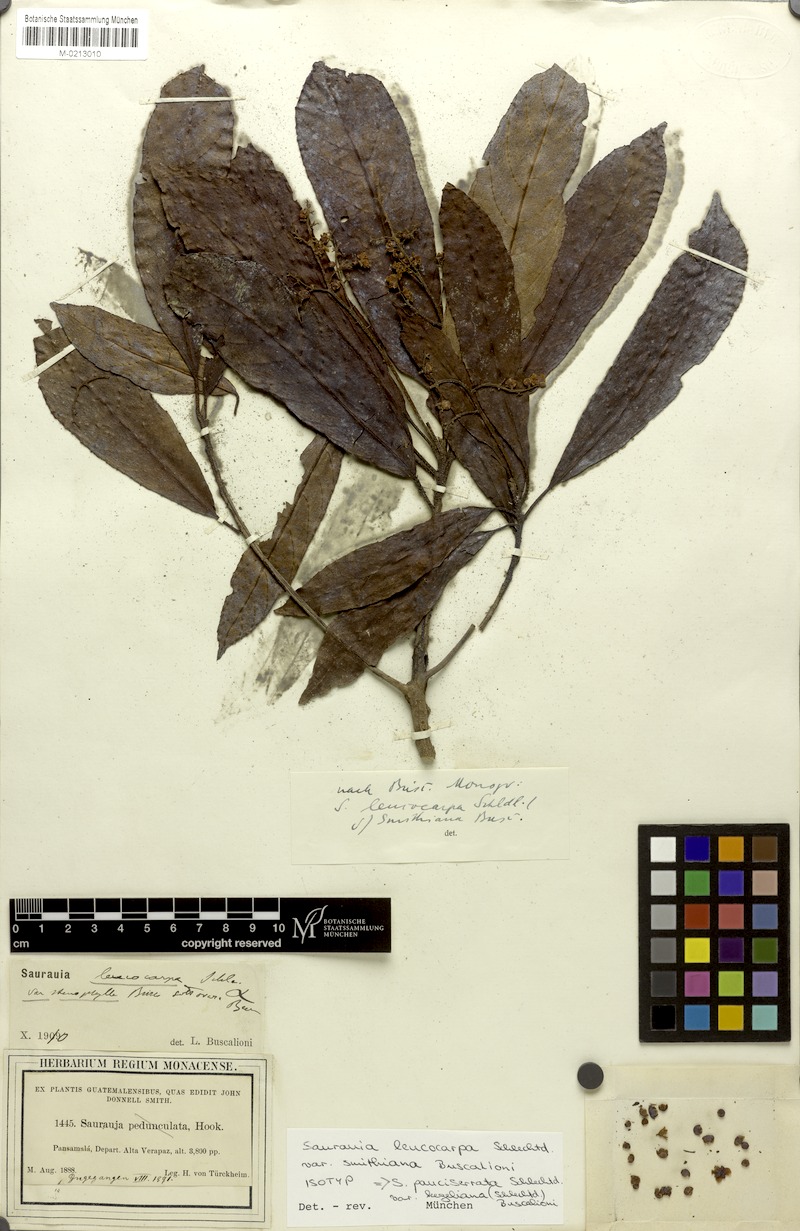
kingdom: Plantae
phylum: Tracheophyta
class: Magnoliopsida
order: Ericales
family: Actinidiaceae
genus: Saurauia
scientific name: Saurauia laevigata
